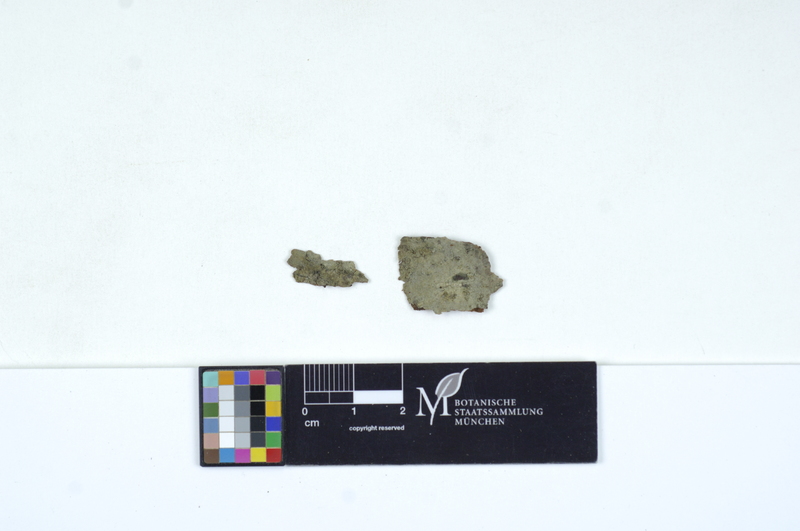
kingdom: Fungi
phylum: Basidiomycota
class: Agaricomycetes
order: Cantharellales
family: Tulasnellaceae
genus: Tulasnella
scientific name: Tulasnella pruinosa
